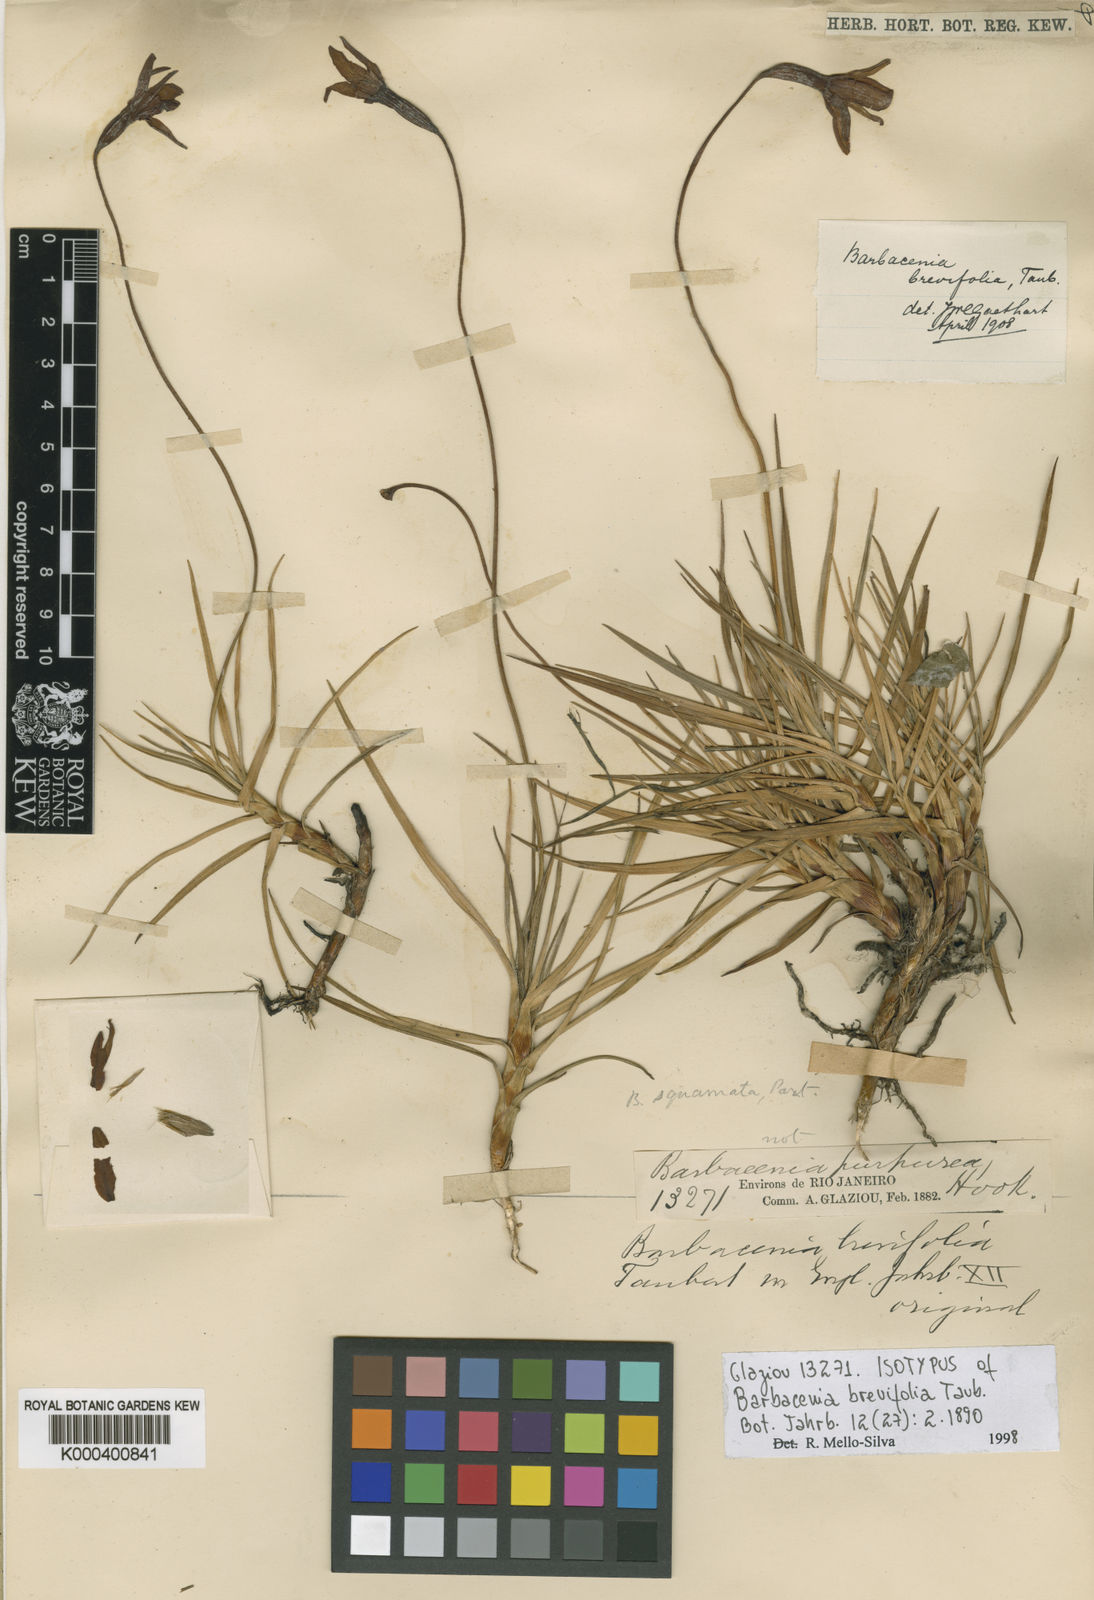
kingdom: Plantae
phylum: Tracheophyta
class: Liliopsida
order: Pandanales
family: Velloziaceae
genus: Barbacenia
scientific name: Barbacenia brevifolia
